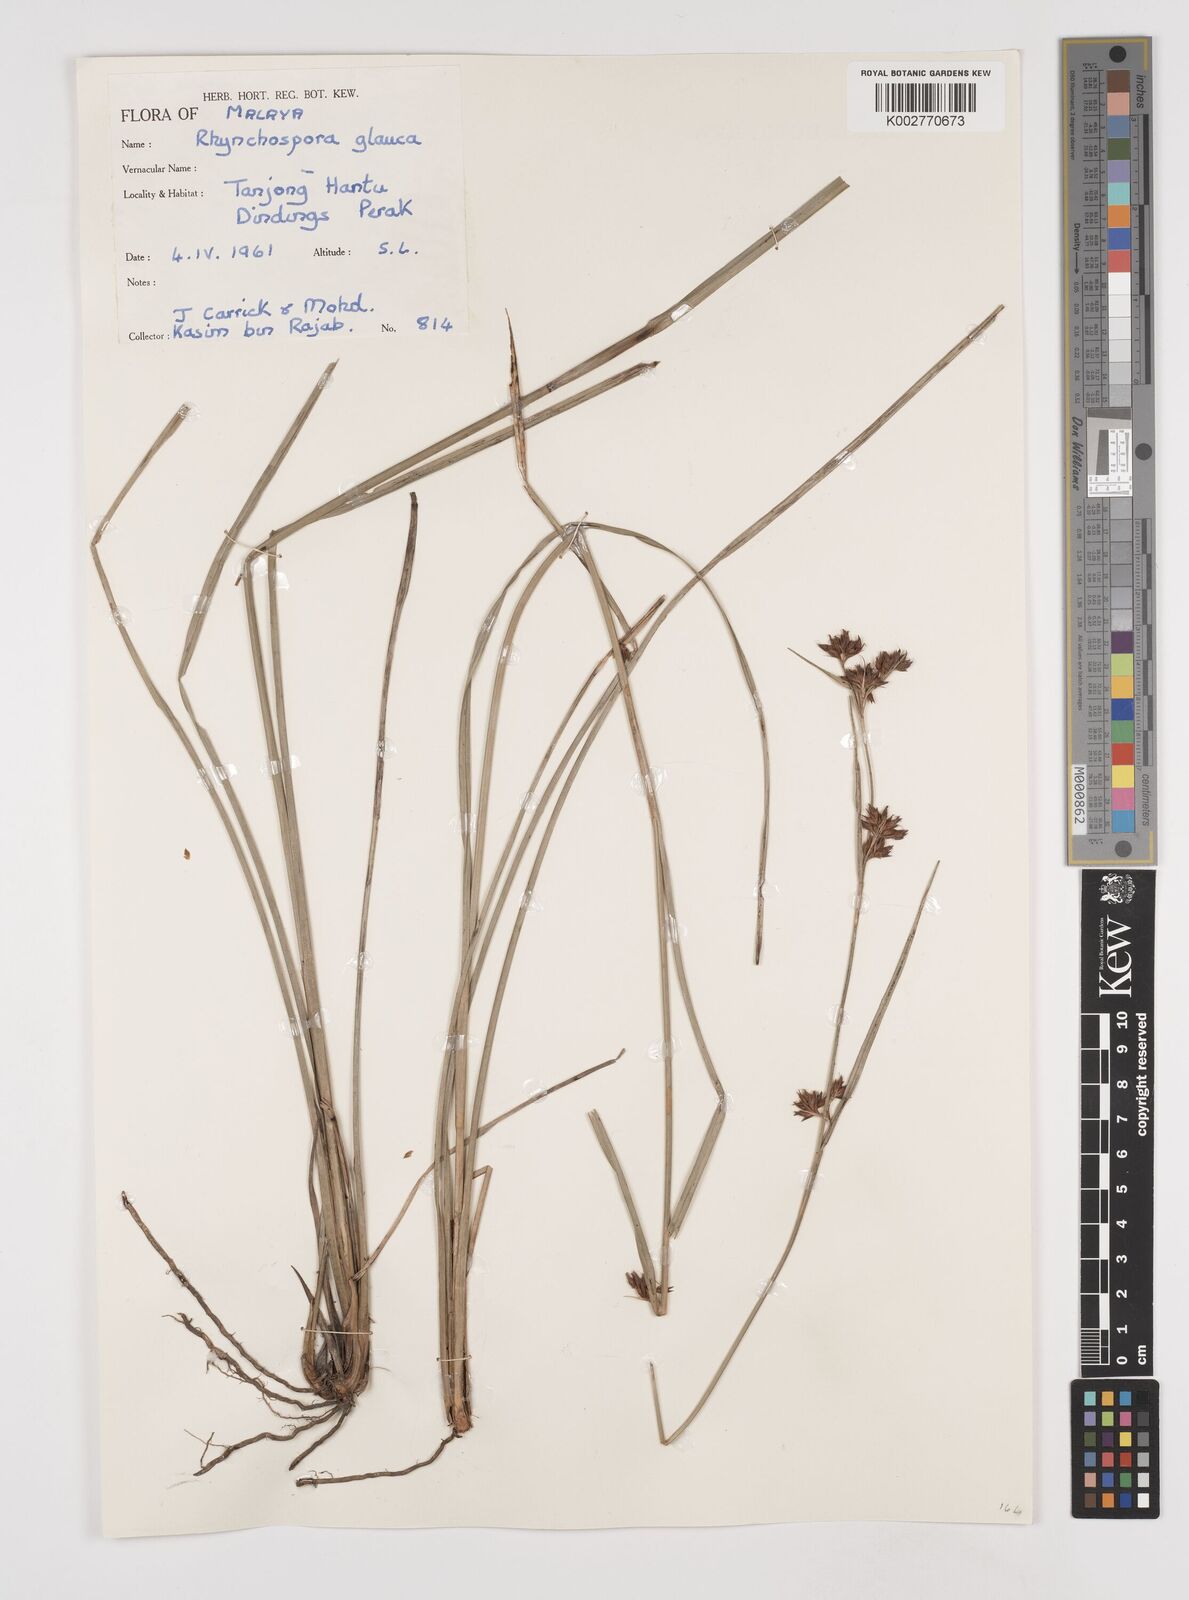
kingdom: Plantae
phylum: Tracheophyta
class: Liliopsida
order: Poales
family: Cyperaceae
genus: Rhynchospora
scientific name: Rhynchospora rugosa
